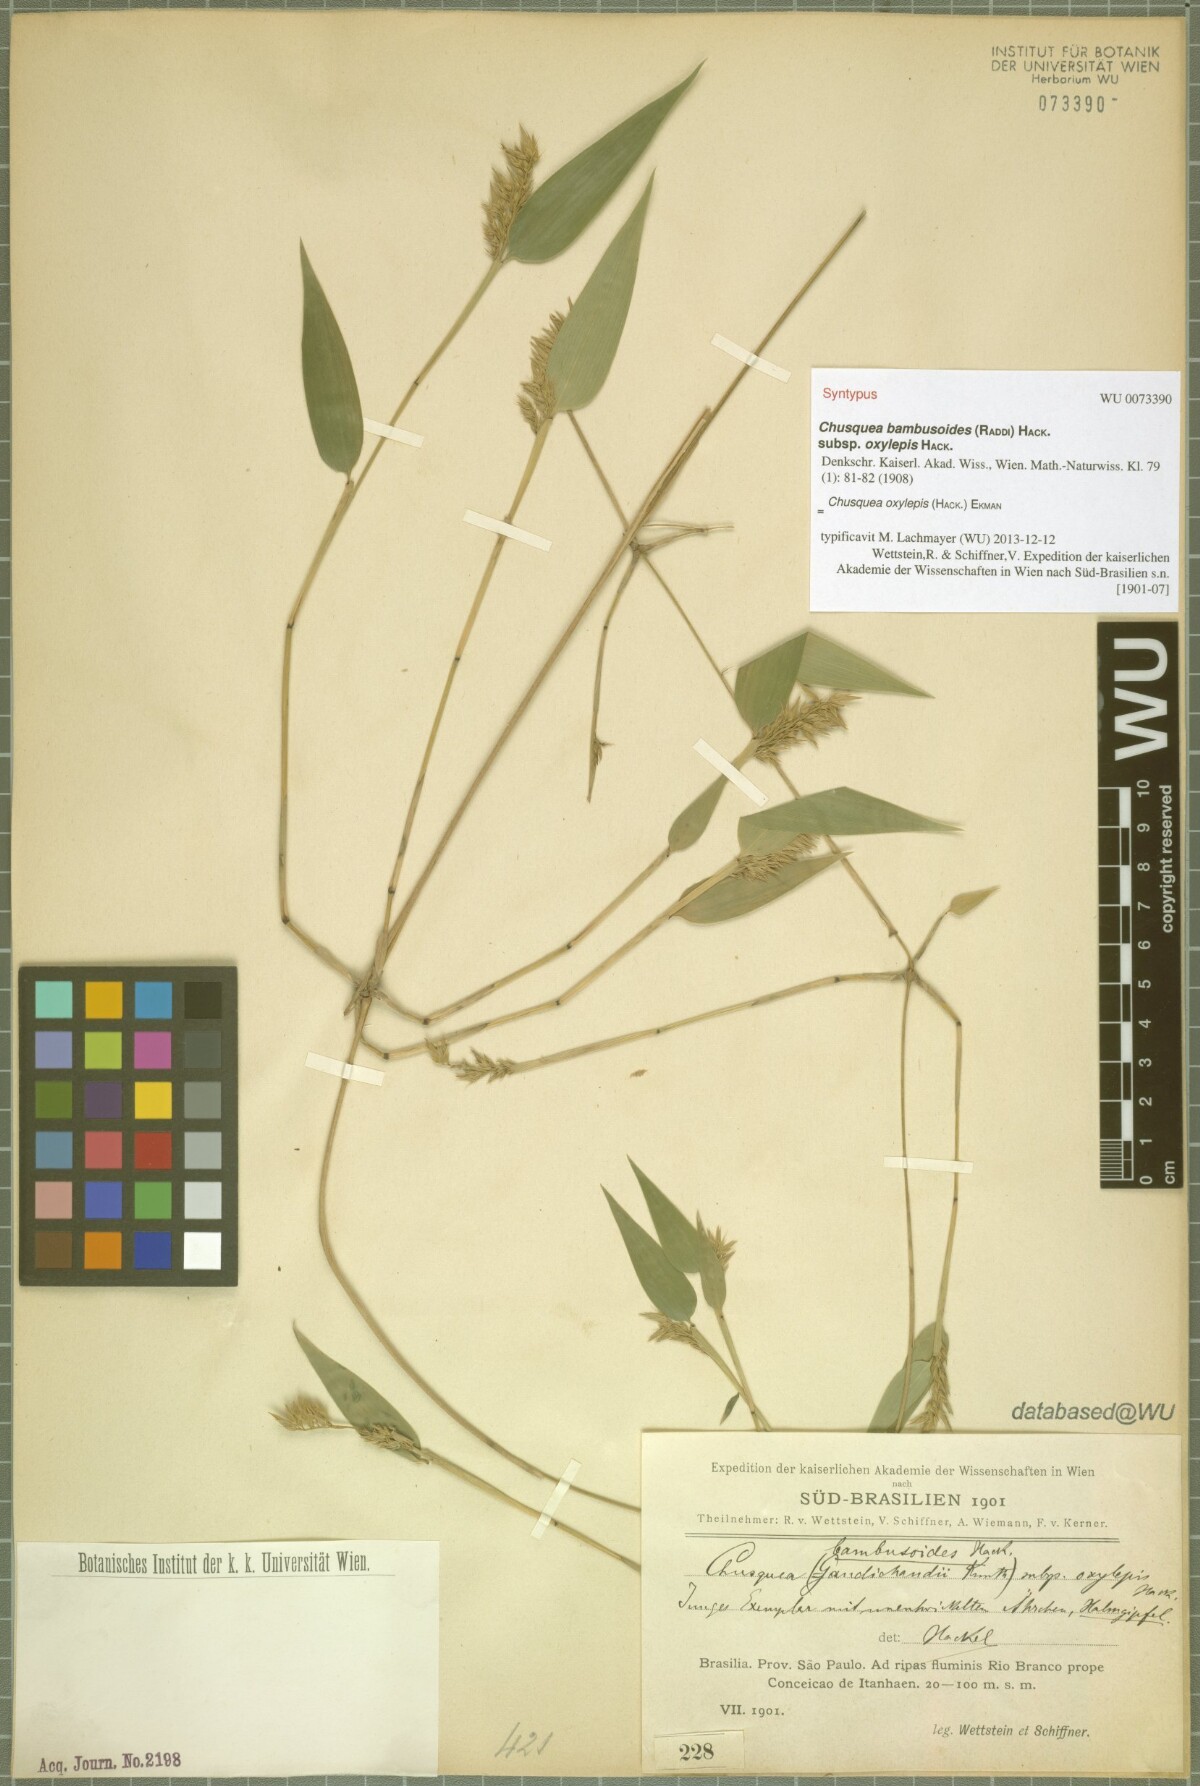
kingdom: Plantae
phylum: Tracheophyta
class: Liliopsida
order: Poales
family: Poaceae
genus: Chusquea
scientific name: Chusquea oxylepis
